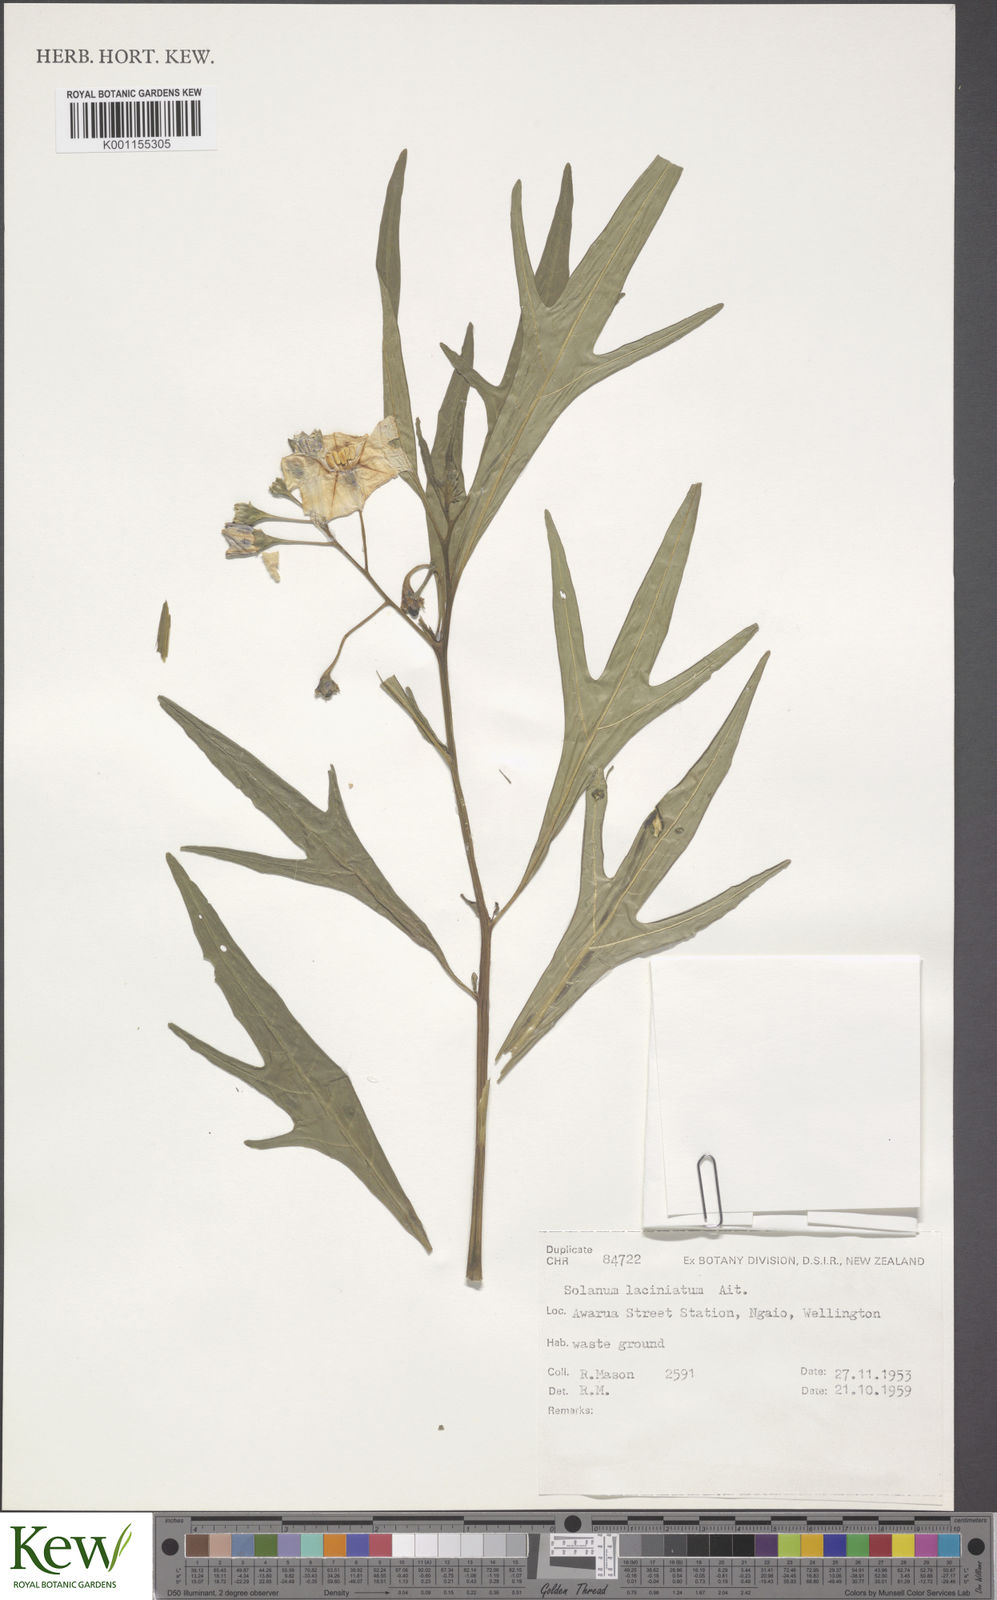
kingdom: Plantae
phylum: Tracheophyta
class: Magnoliopsida
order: Solanales
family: Solanaceae
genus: Solanum
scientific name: Solanum laciniatum
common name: Kangaroo-apple
